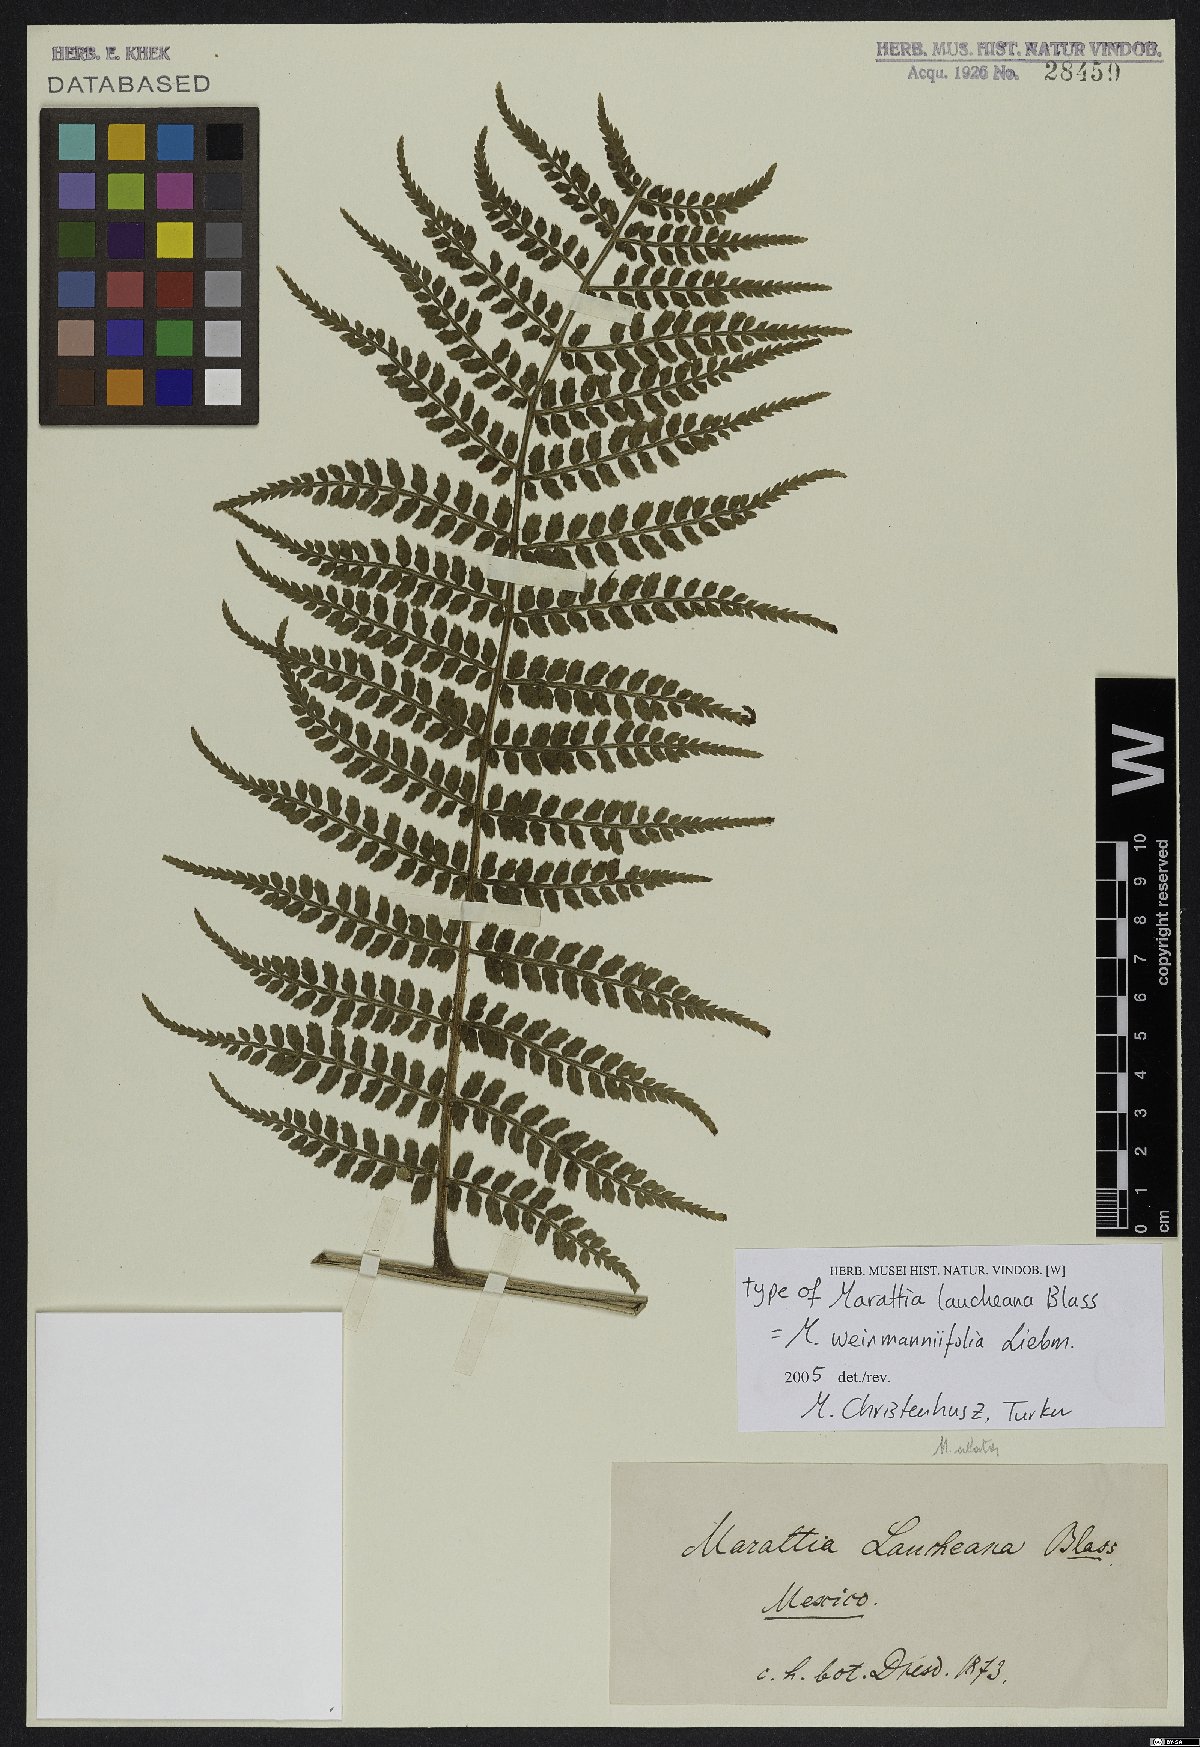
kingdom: Plantae
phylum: Tracheophyta
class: Polypodiopsida
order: Marattiales
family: Marattiaceae
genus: Marattia
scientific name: Marattia weinmanniifolia
